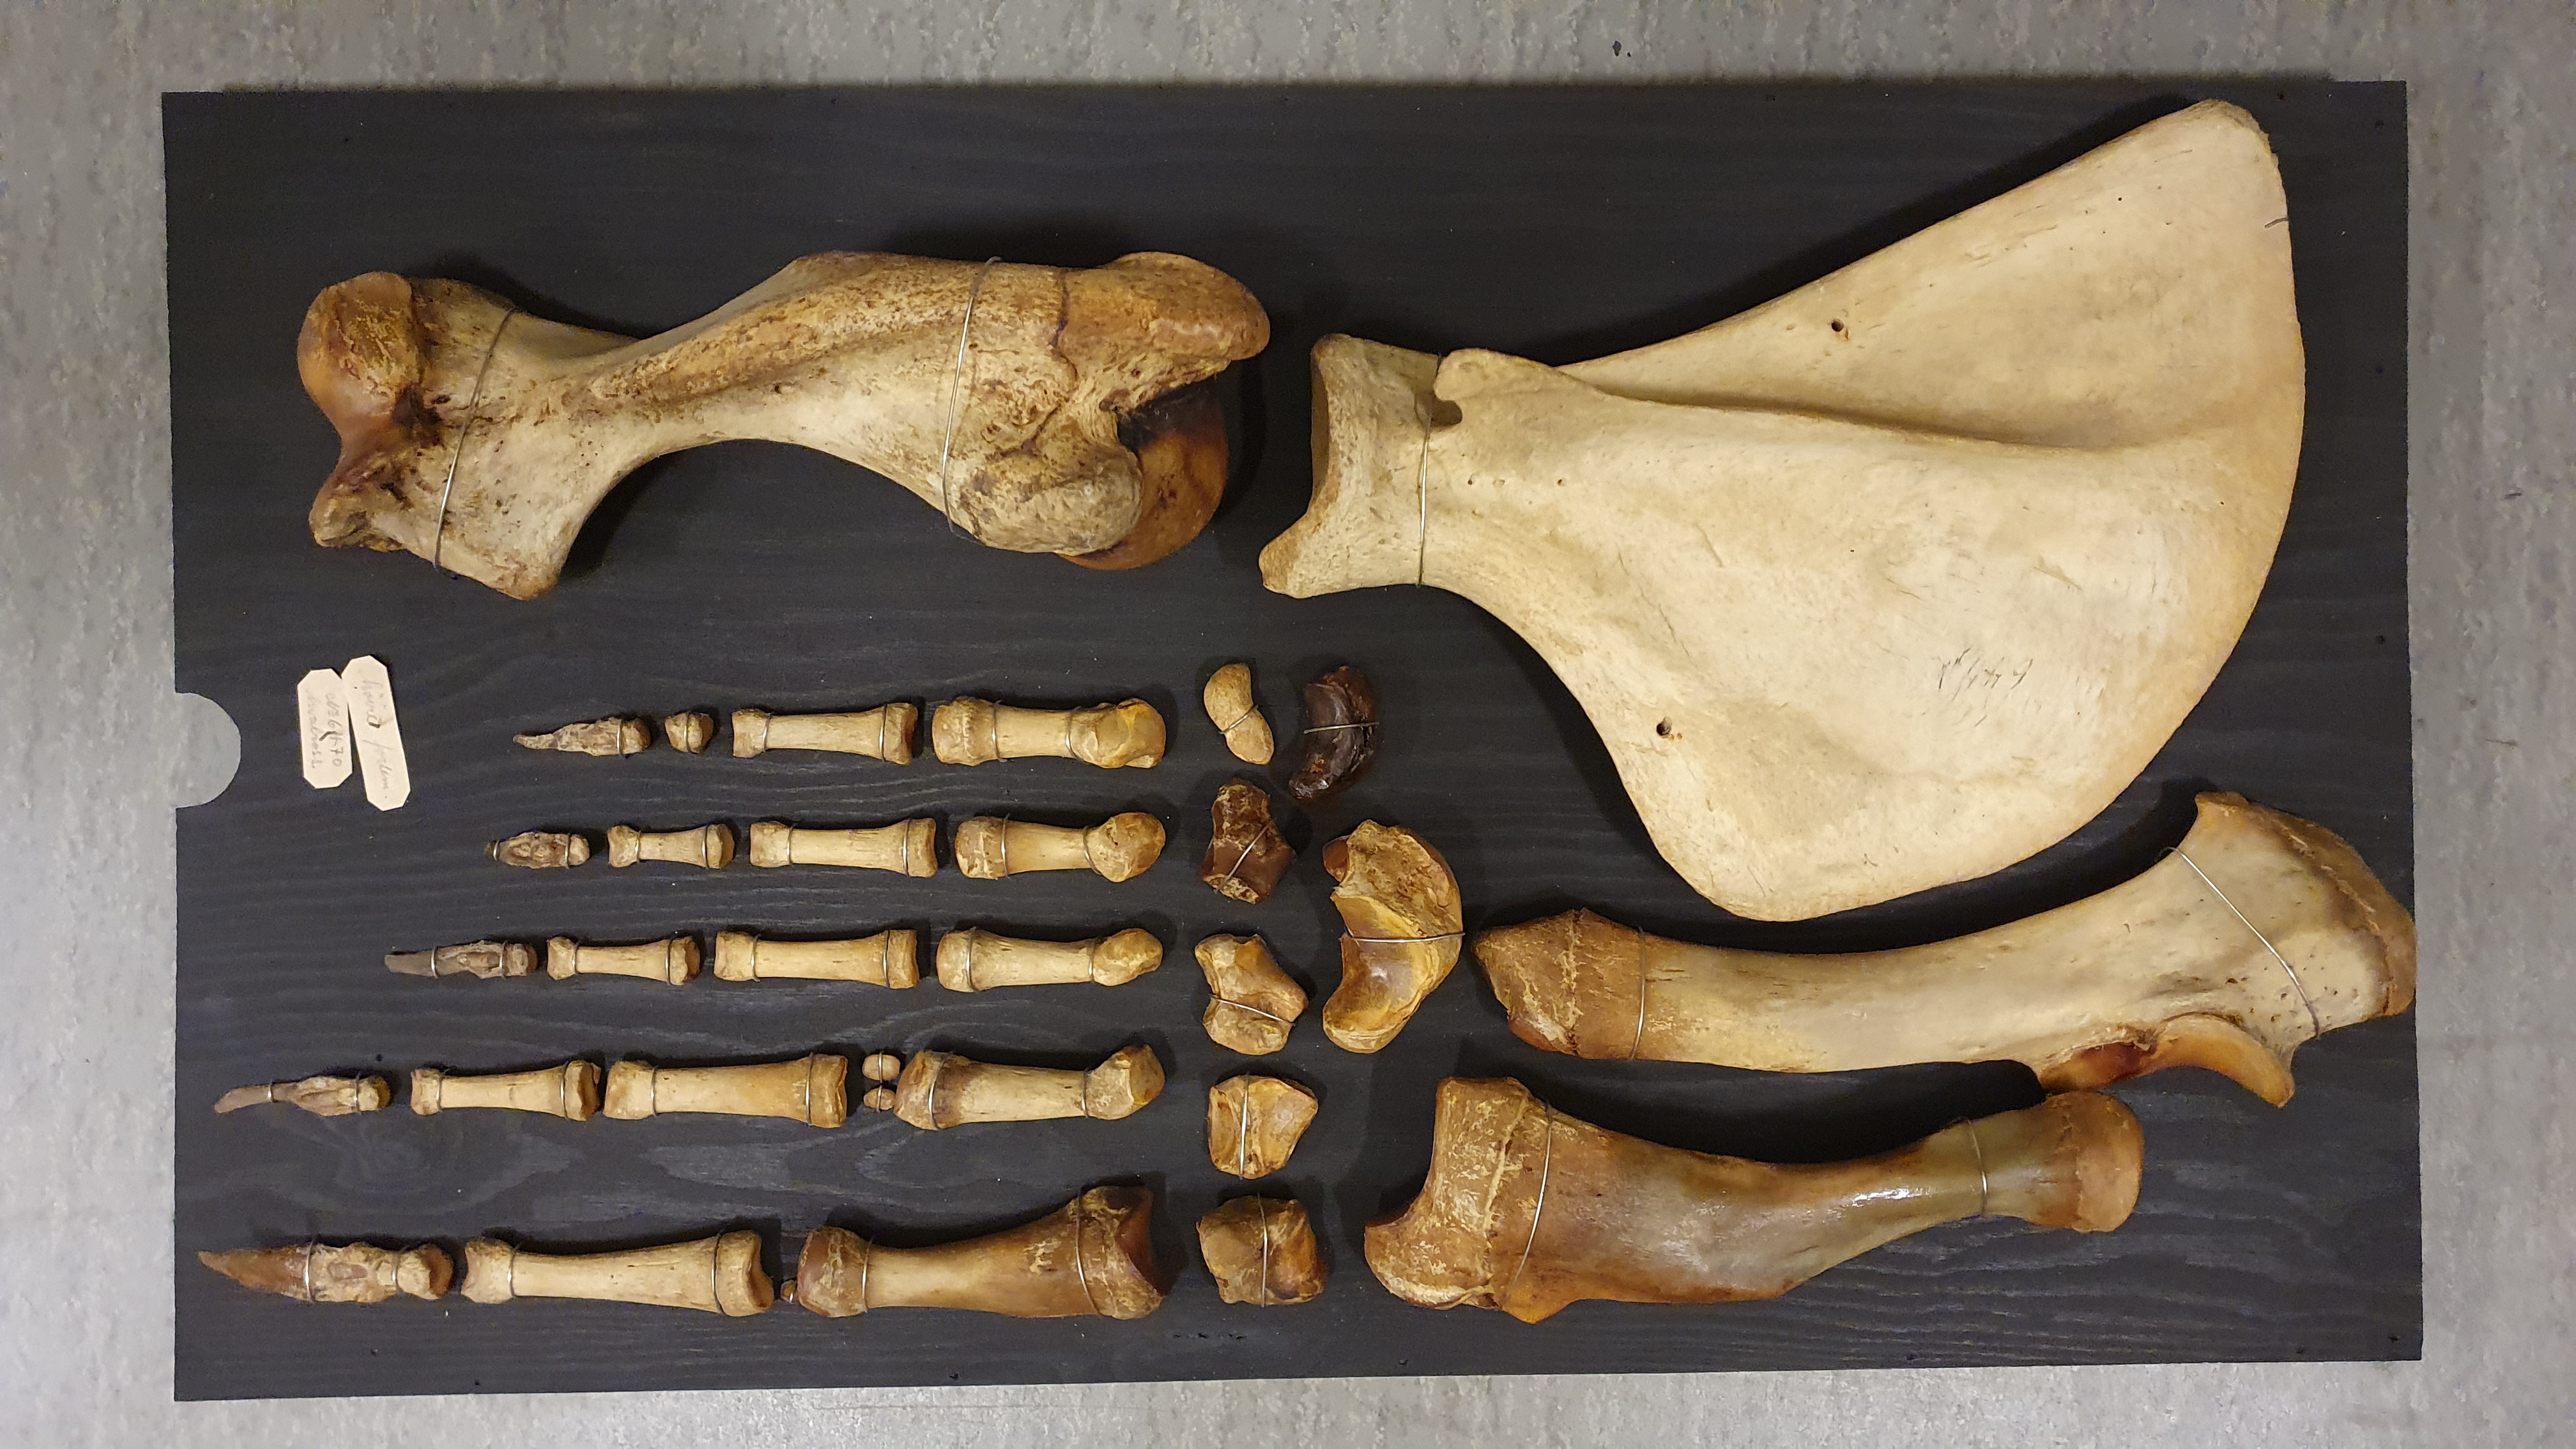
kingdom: Animalia
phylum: Chordata
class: Mammalia
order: Carnivora
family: Odobenidae
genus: Odobenus
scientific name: Odobenus rosmarus
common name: Walrus
